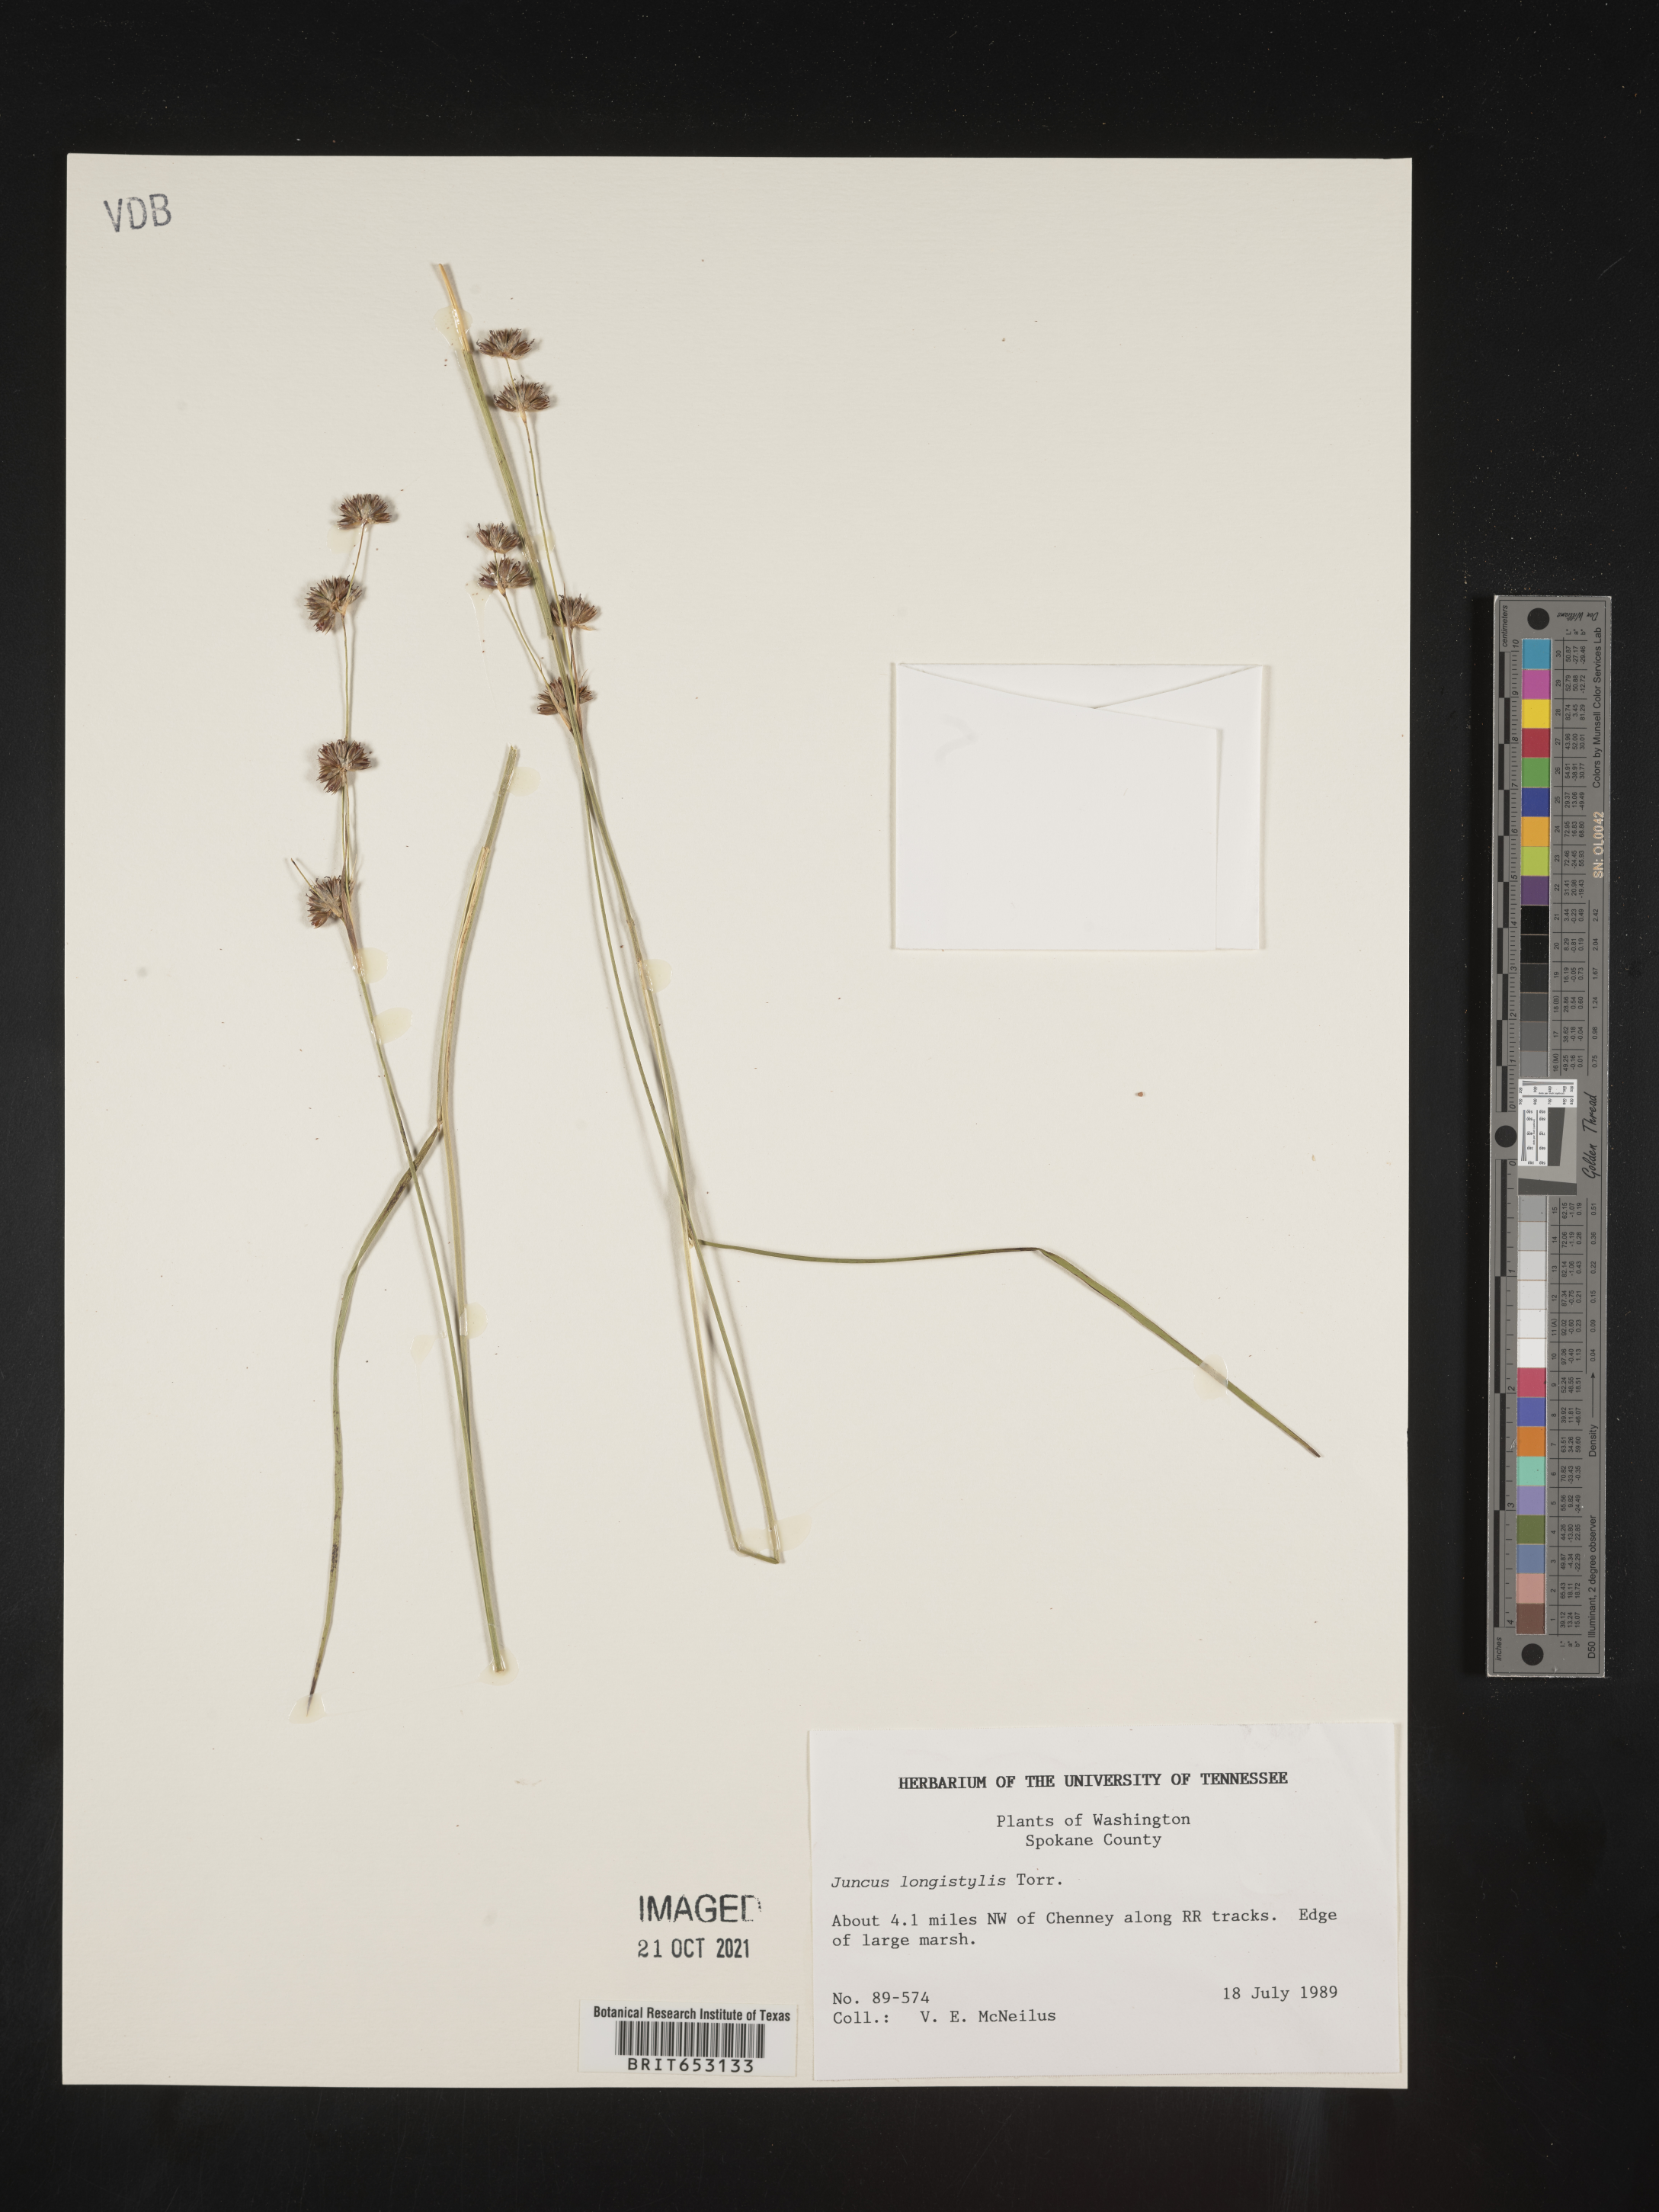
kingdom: Plantae
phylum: Tracheophyta
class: Liliopsida
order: Poales
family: Juncaceae
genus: Juncus
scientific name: Juncus longistylis
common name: Long-style rush
